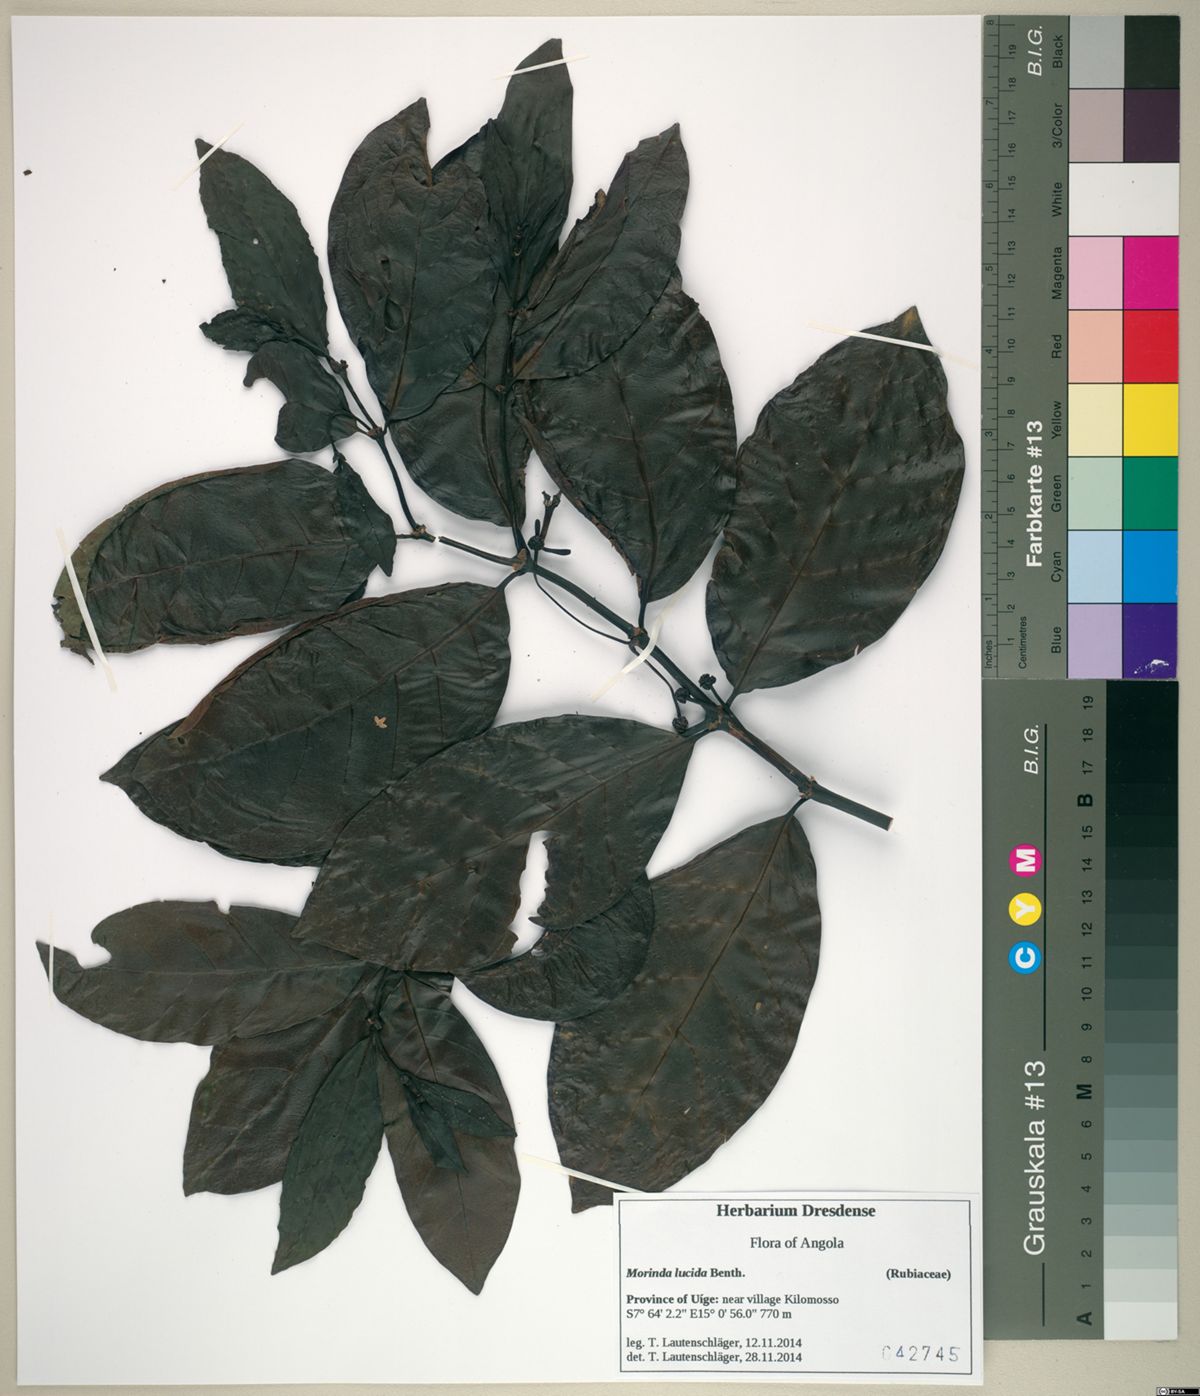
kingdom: Plantae
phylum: Tracheophyta
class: Magnoliopsida
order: Gentianales
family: Rubiaceae
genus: Morinda
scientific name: Morinda lucida
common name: Brimstonetree
